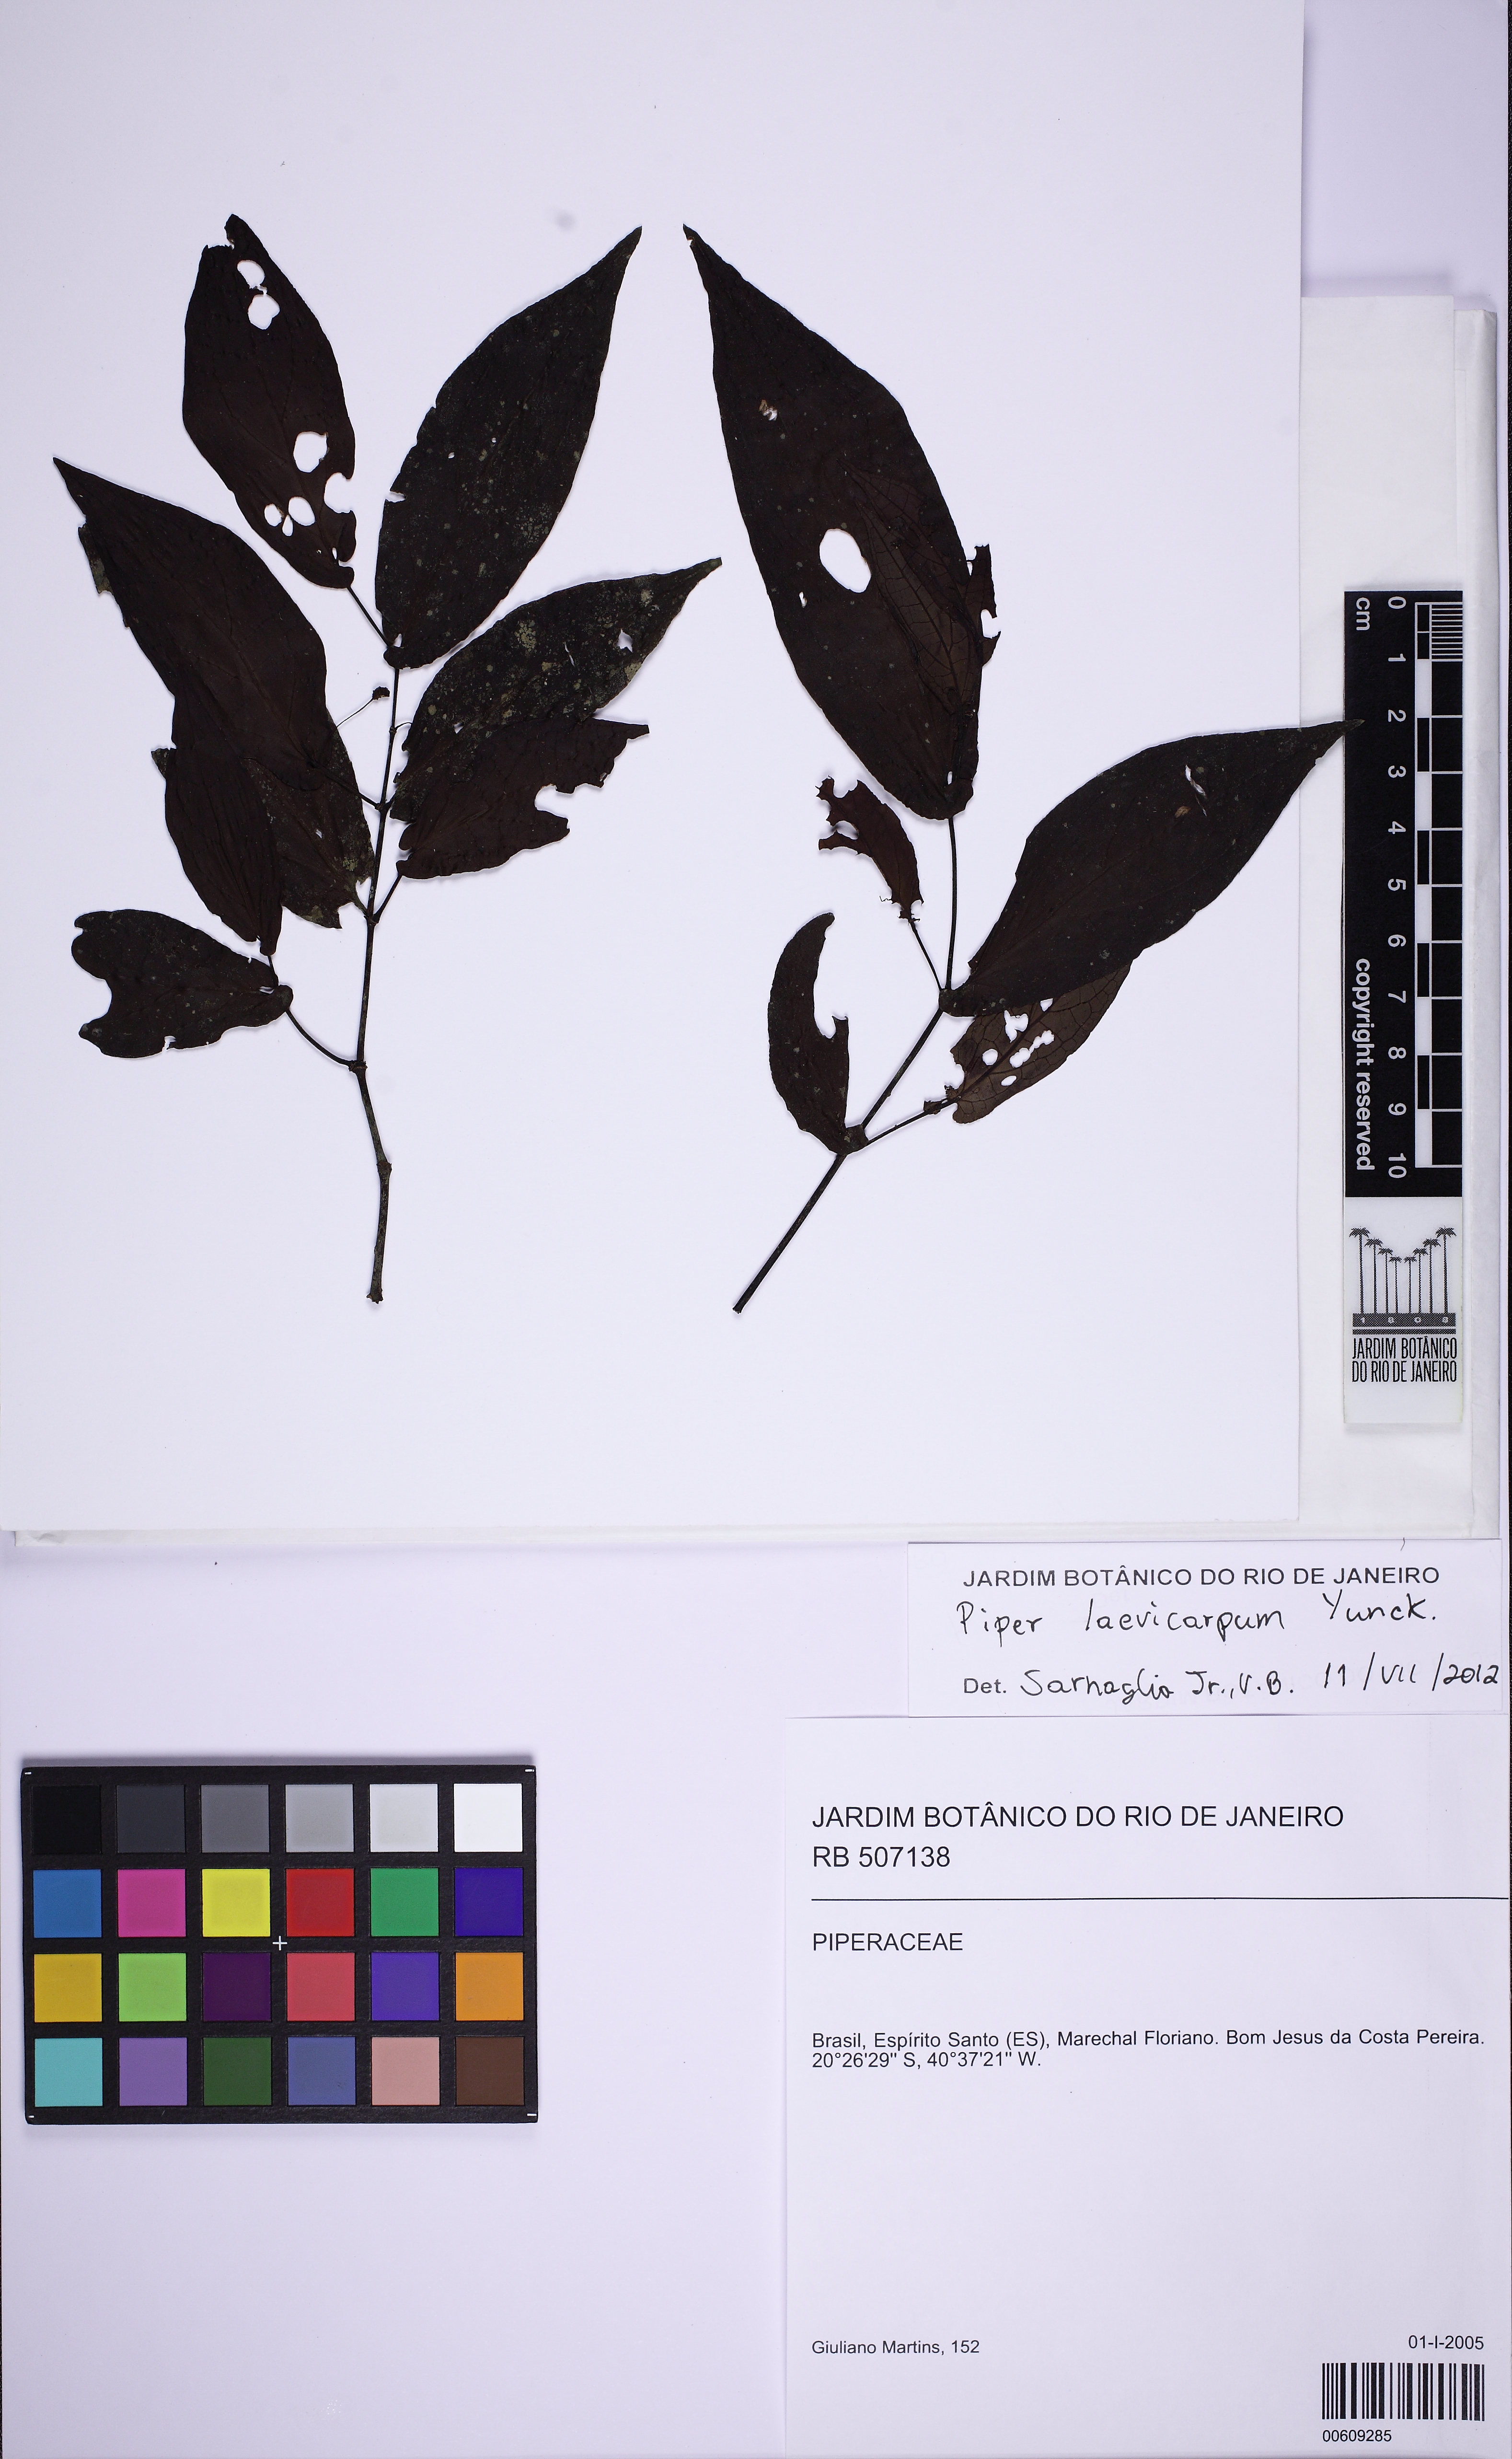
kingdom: Plantae
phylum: Tracheophyta
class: Magnoliopsida
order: Piperales
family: Piperaceae
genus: Piper
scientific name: Piper laevicarpum
